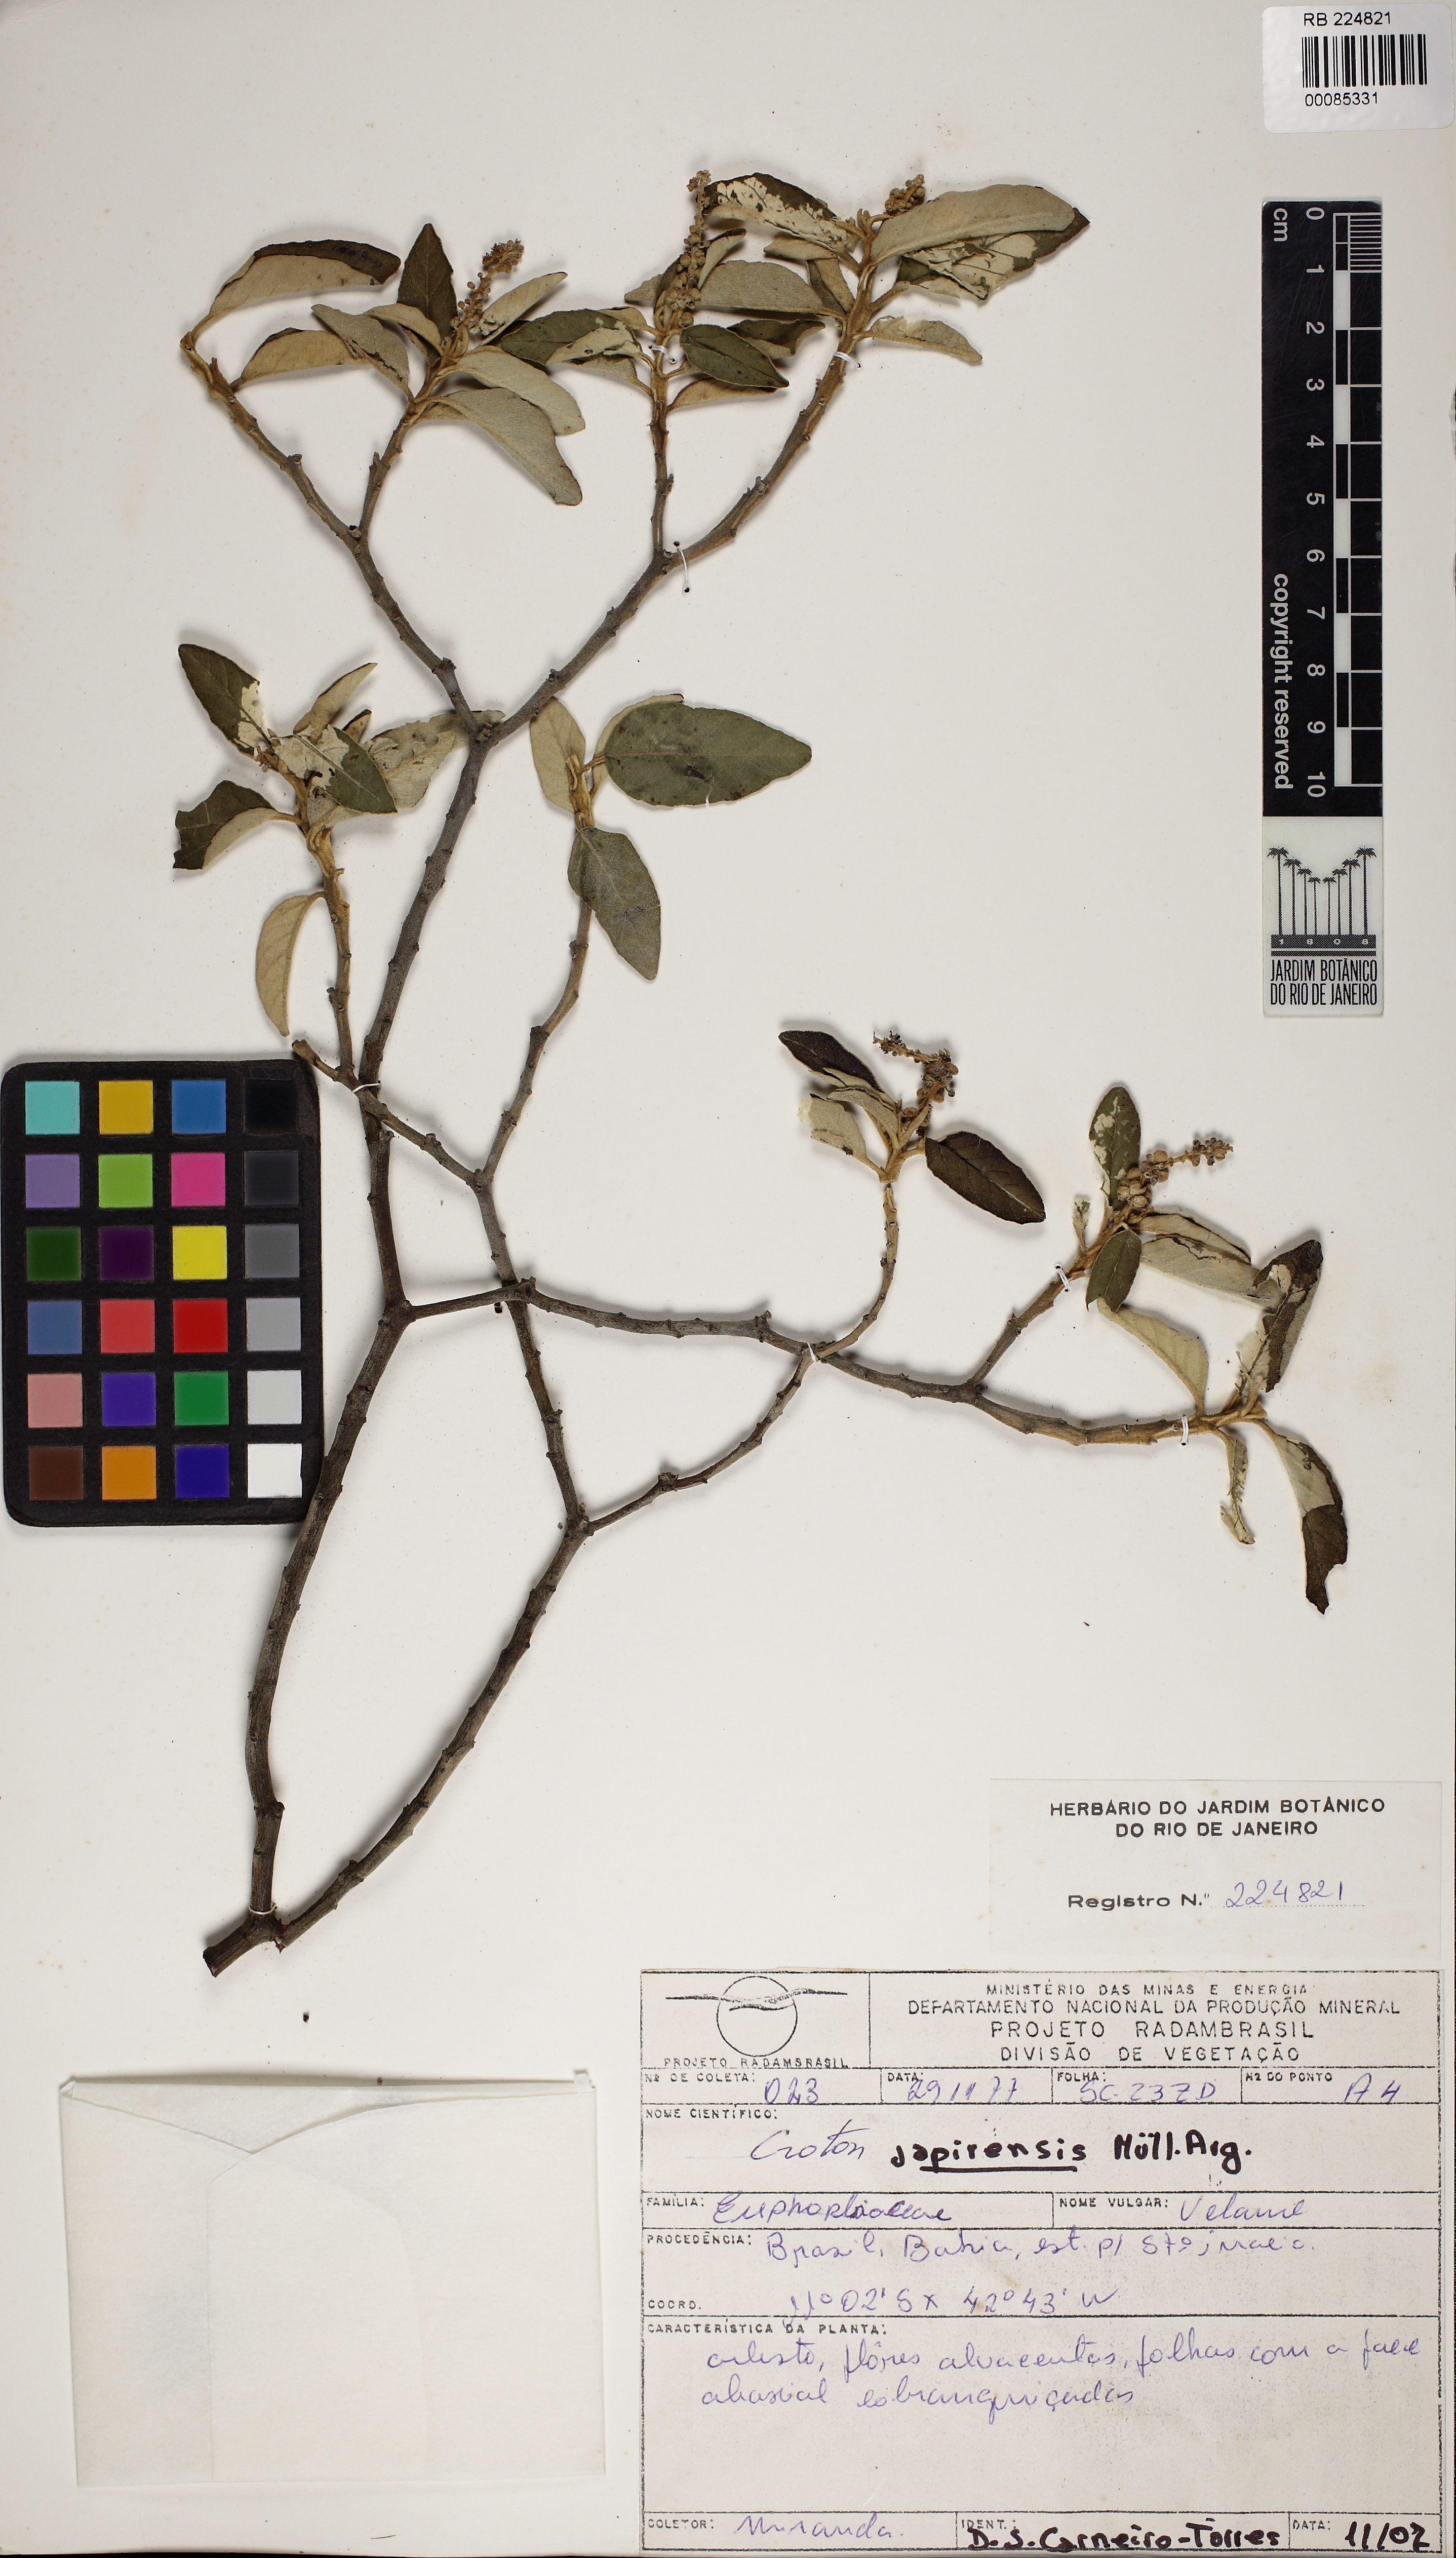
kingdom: Plantae
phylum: Tracheophyta
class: Magnoliopsida
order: Malpighiales
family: Euphorbiaceae
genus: Croton
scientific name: Croton campestris
